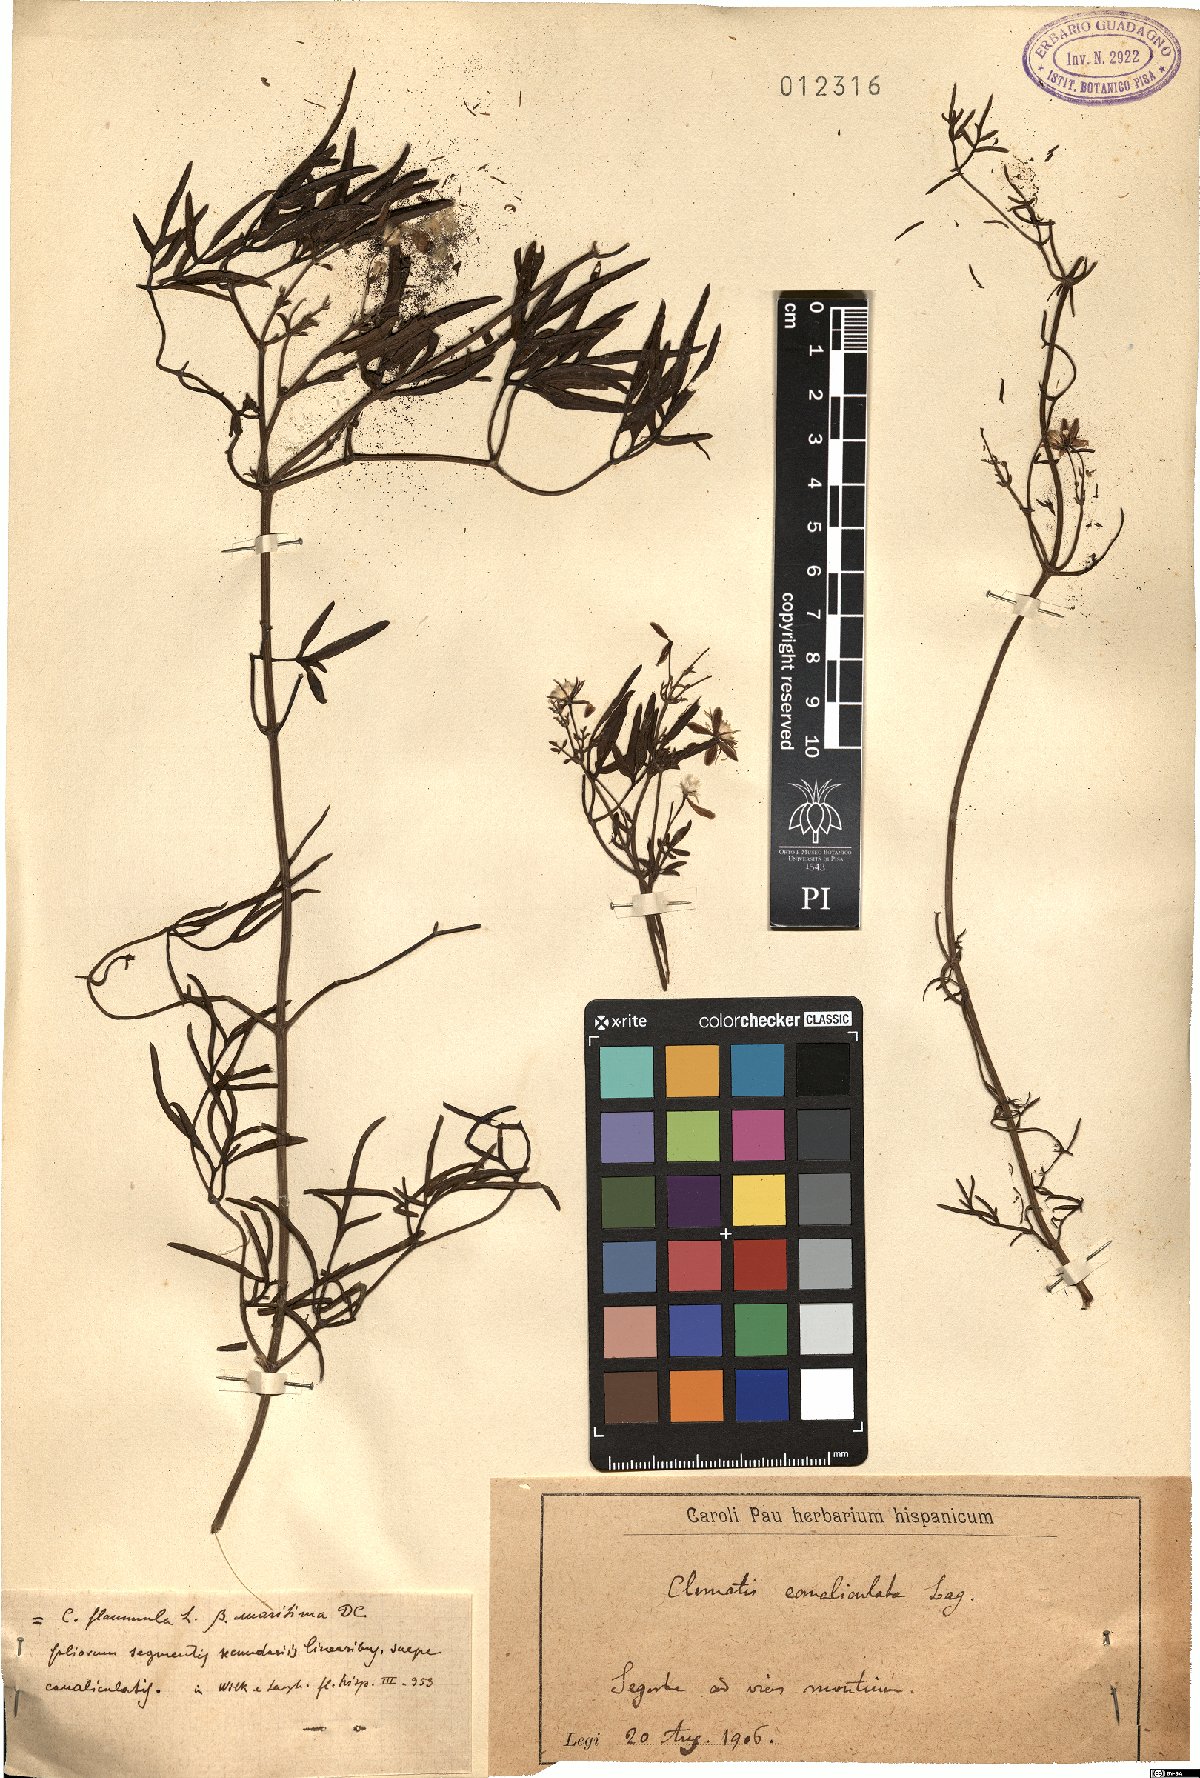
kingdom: Plantae
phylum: Tracheophyta
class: Magnoliopsida
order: Ranunculales
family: Ranunculaceae
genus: Clematis
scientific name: Clematis flammula
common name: Virgin's-bower
